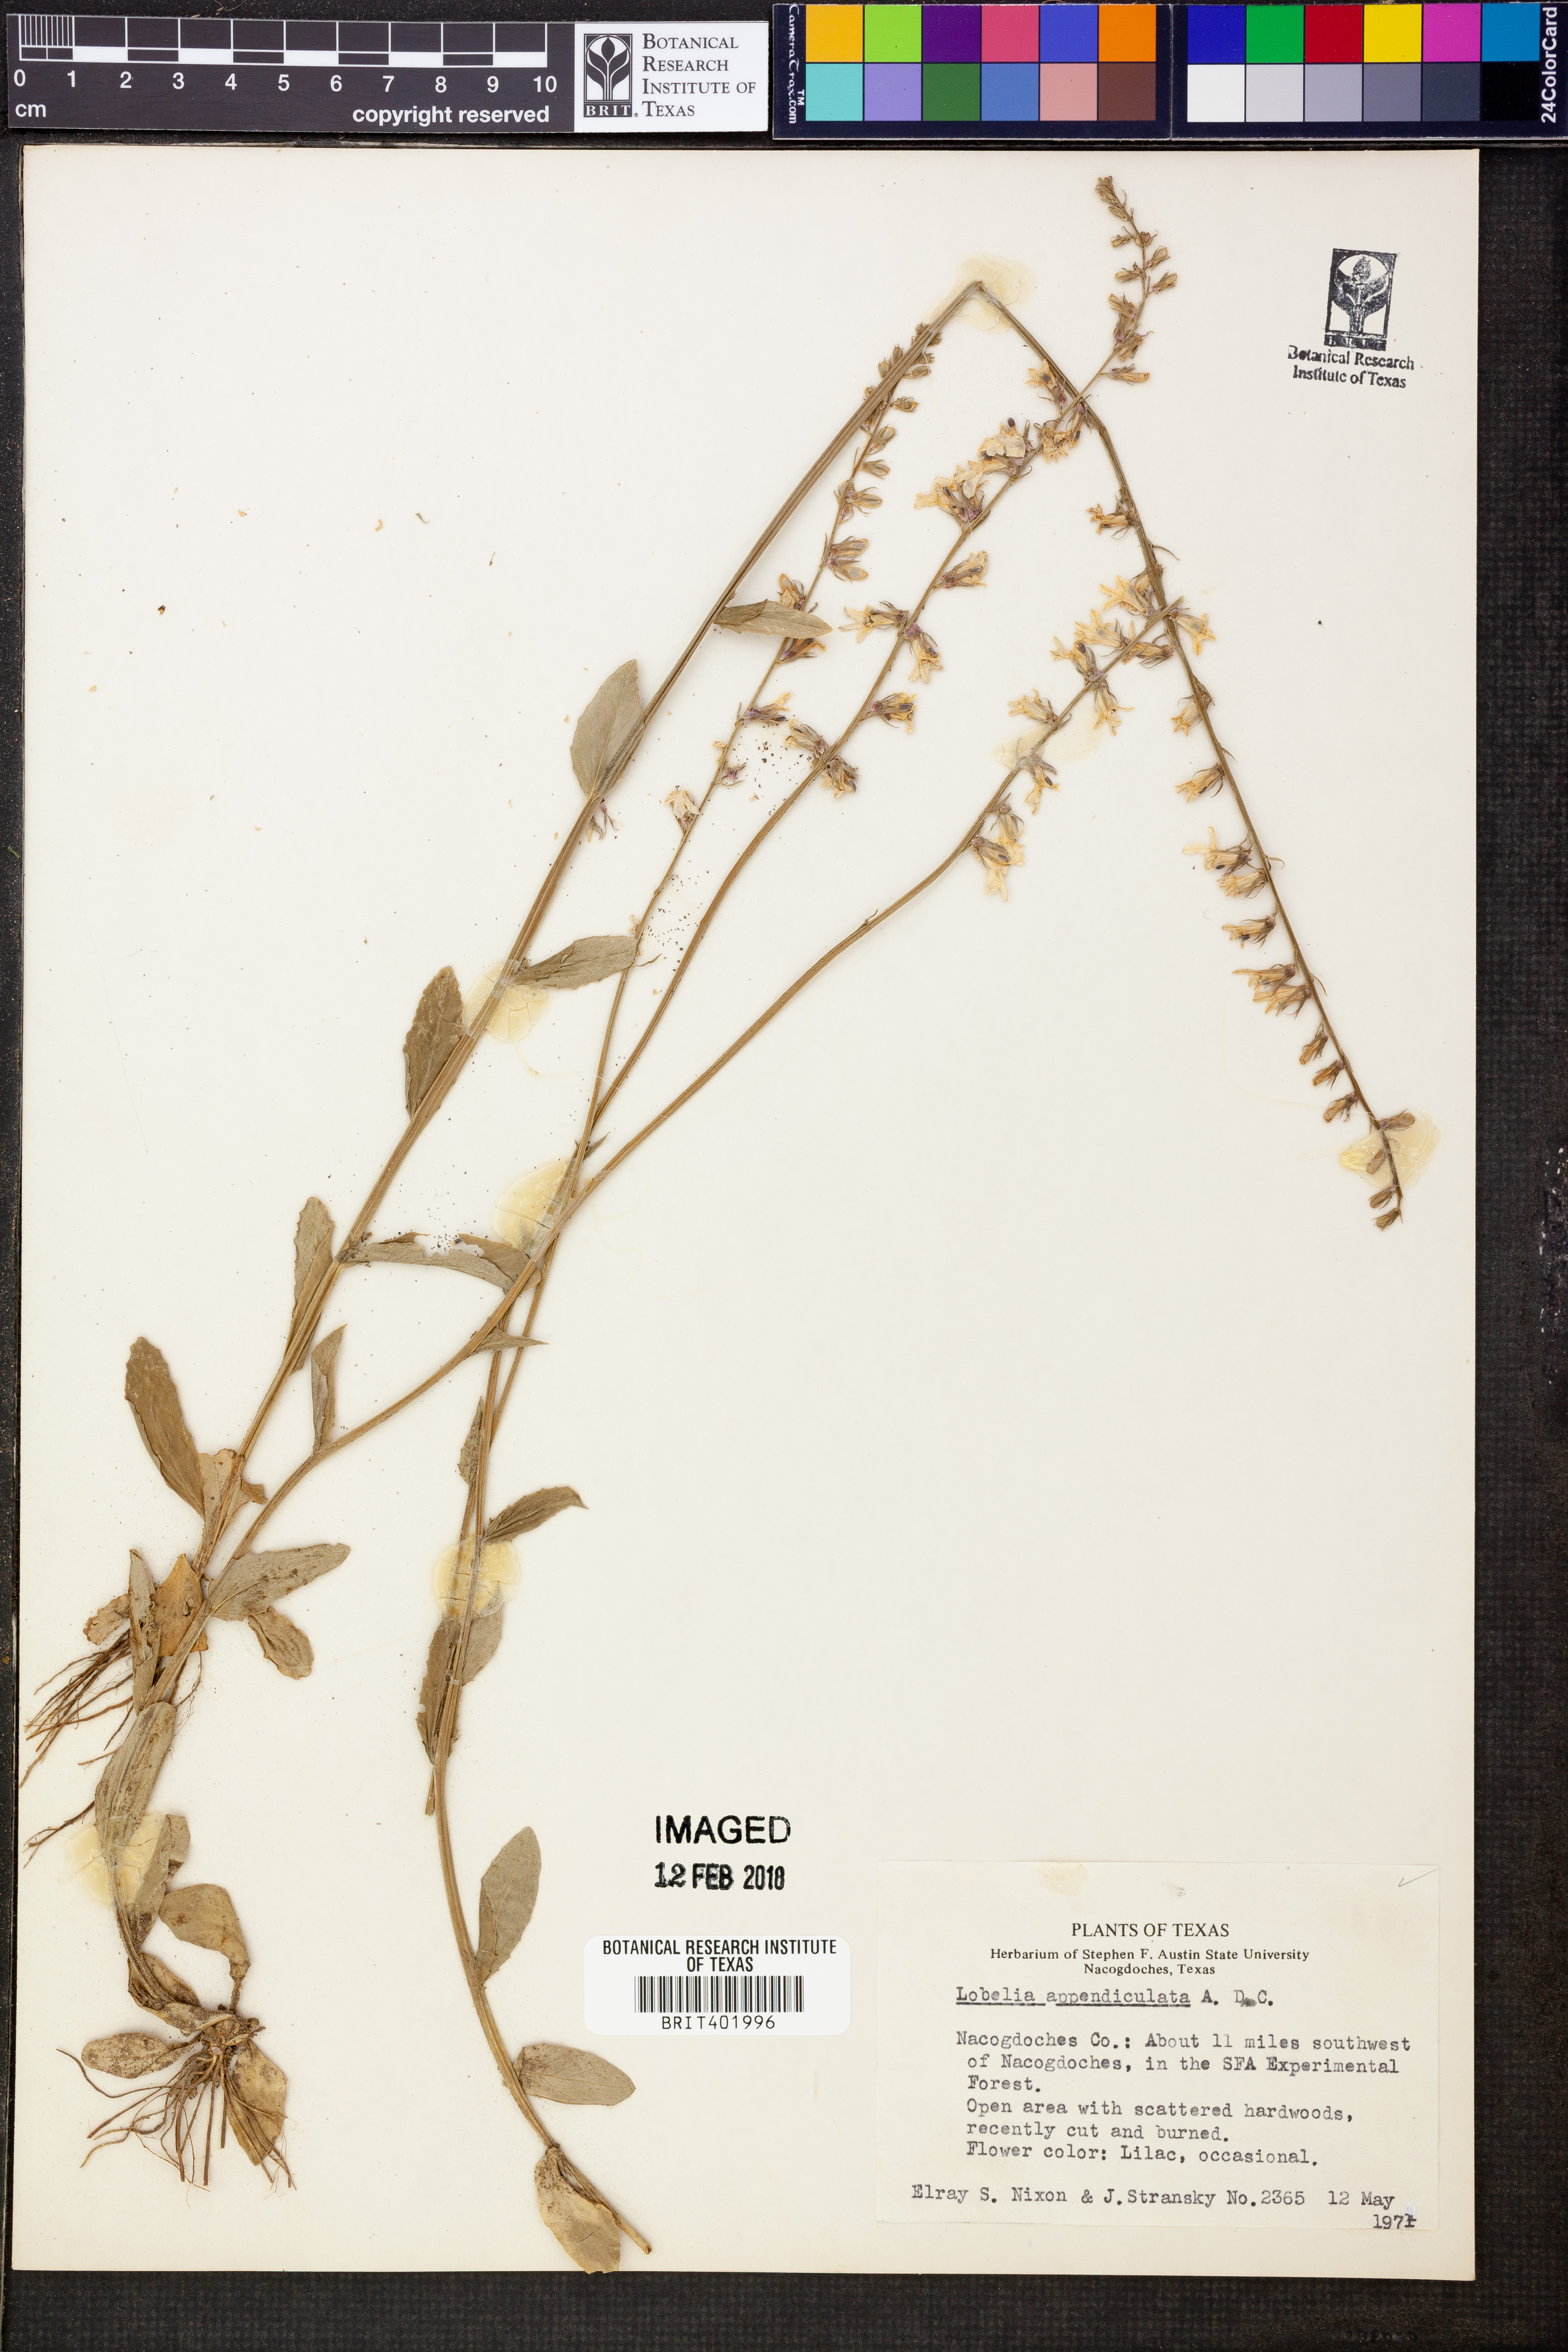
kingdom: Plantae
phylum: Tracheophyta
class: Magnoliopsida
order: Asterales
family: Campanulaceae
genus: Lobelia
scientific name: Lobelia appendiculata
